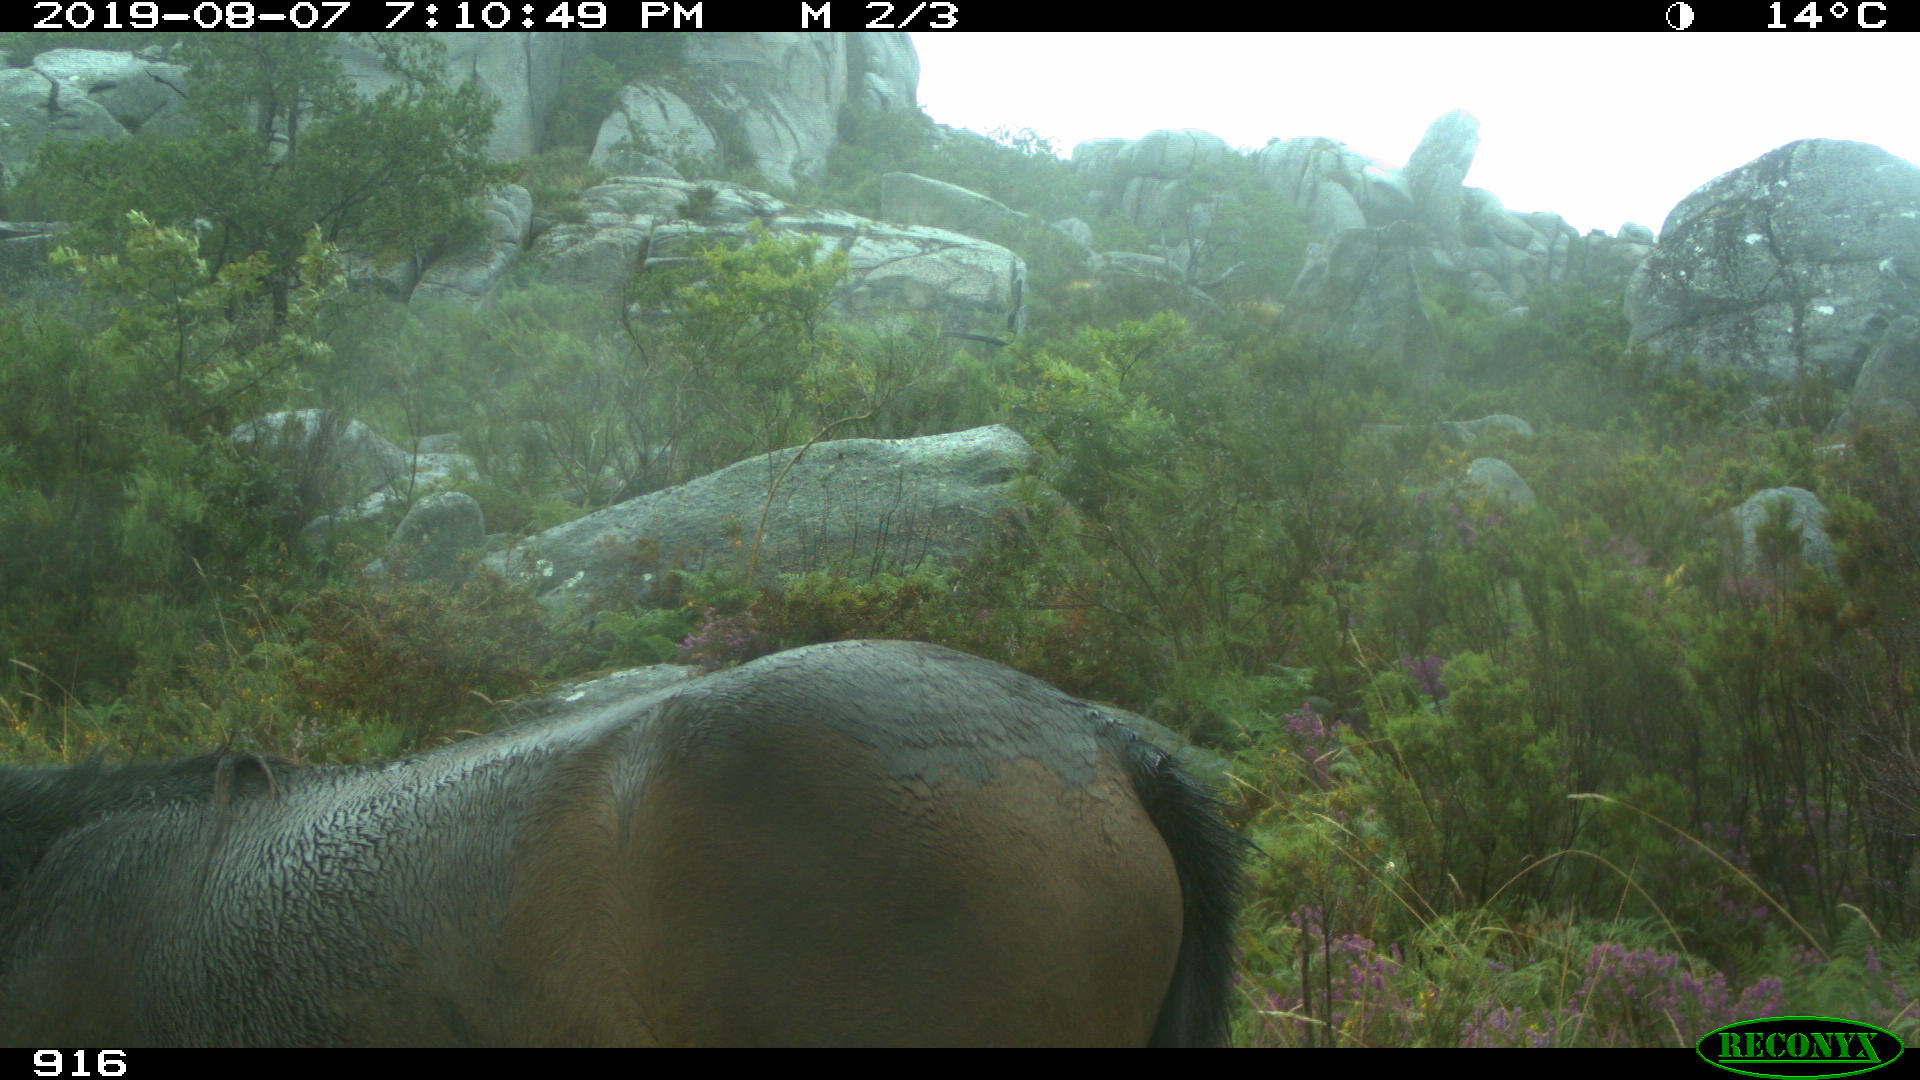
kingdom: Animalia
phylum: Chordata
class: Mammalia
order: Perissodactyla
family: Equidae
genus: Equus
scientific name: Equus caballus
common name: Horse
